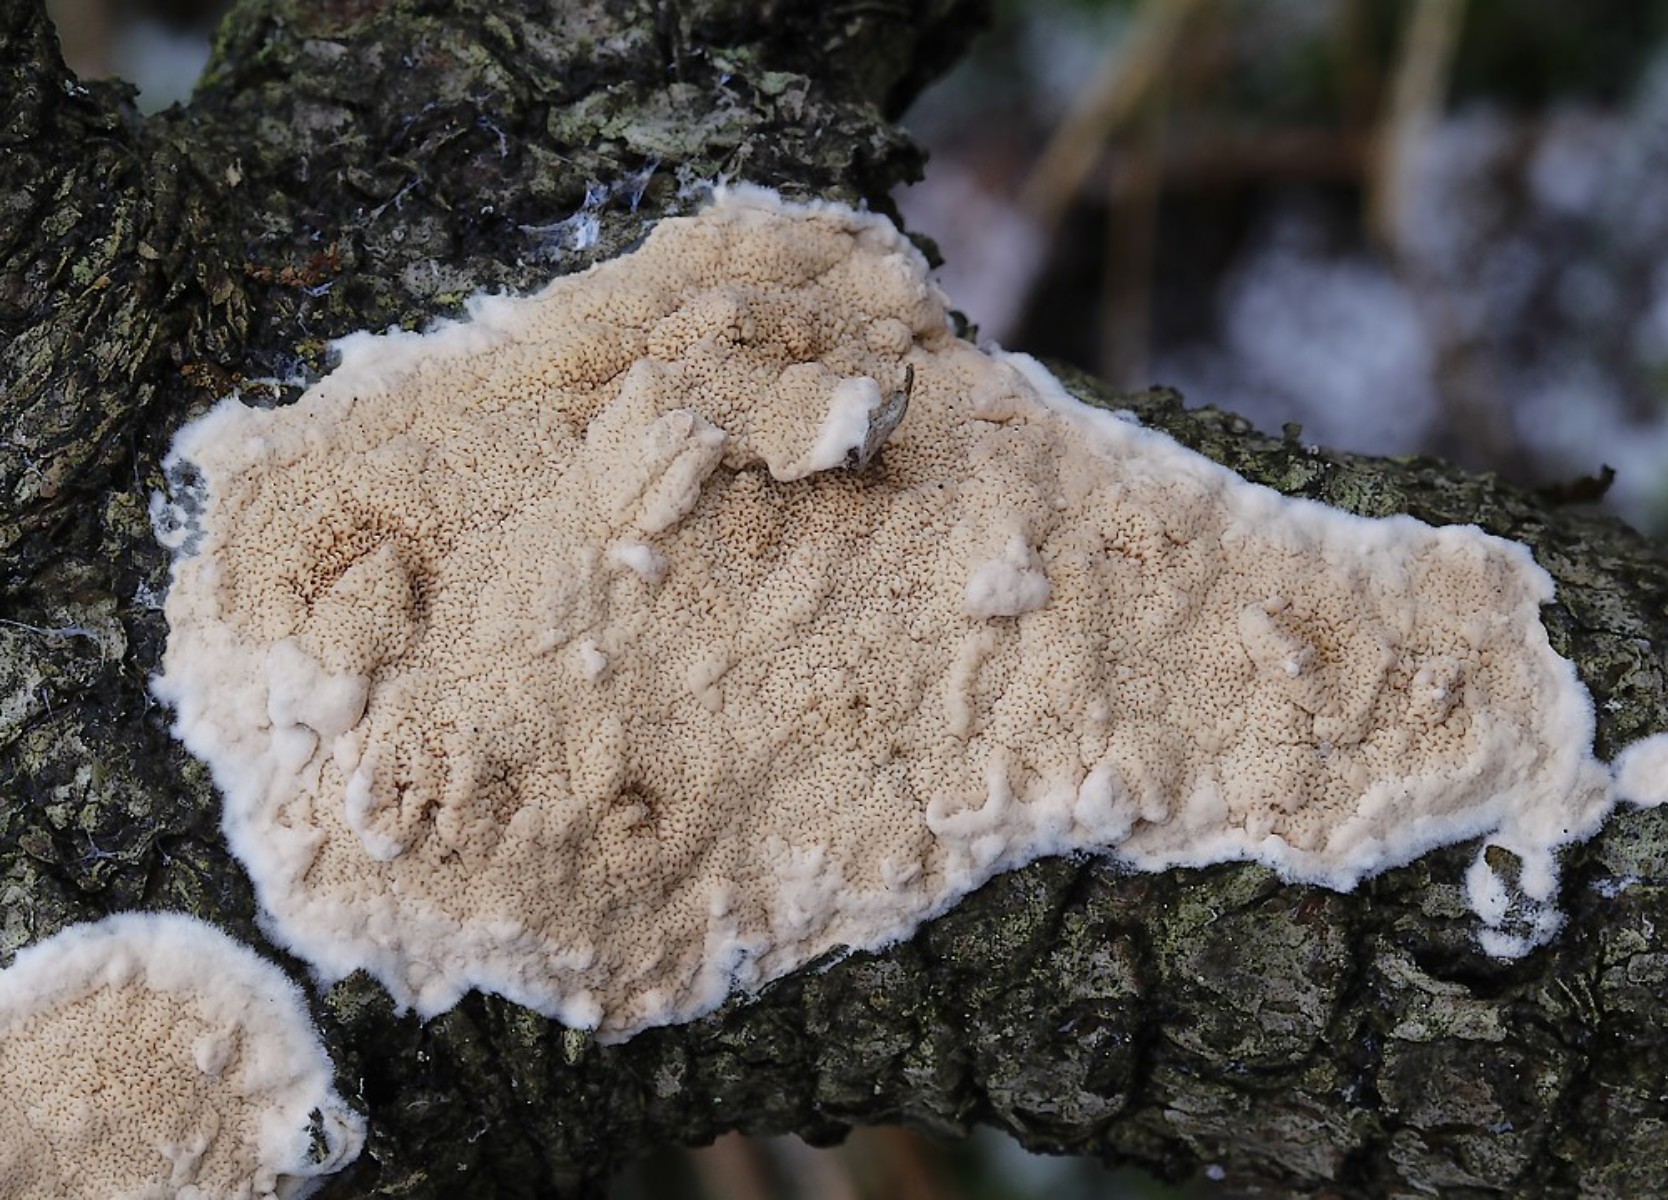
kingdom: Fungi
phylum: Basidiomycota
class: Agaricomycetes
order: Corticiales
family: Corticiaceae
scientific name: Corticiaceae
